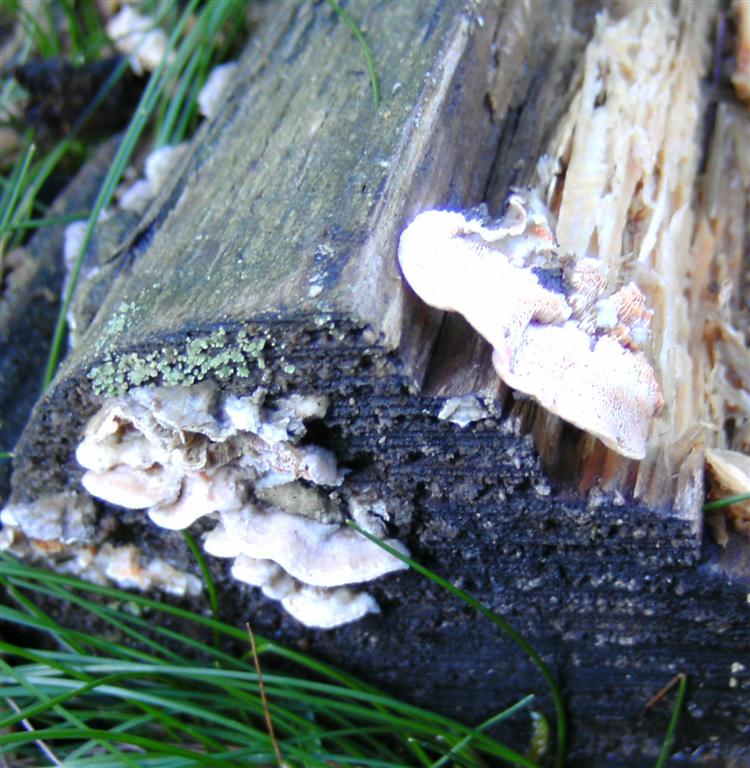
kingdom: Fungi
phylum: Basidiomycota
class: Agaricomycetes
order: Polyporales
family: Incrustoporiaceae
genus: Skeletocutis
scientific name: Skeletocutis amorpha
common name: orange krystalporesvamp
